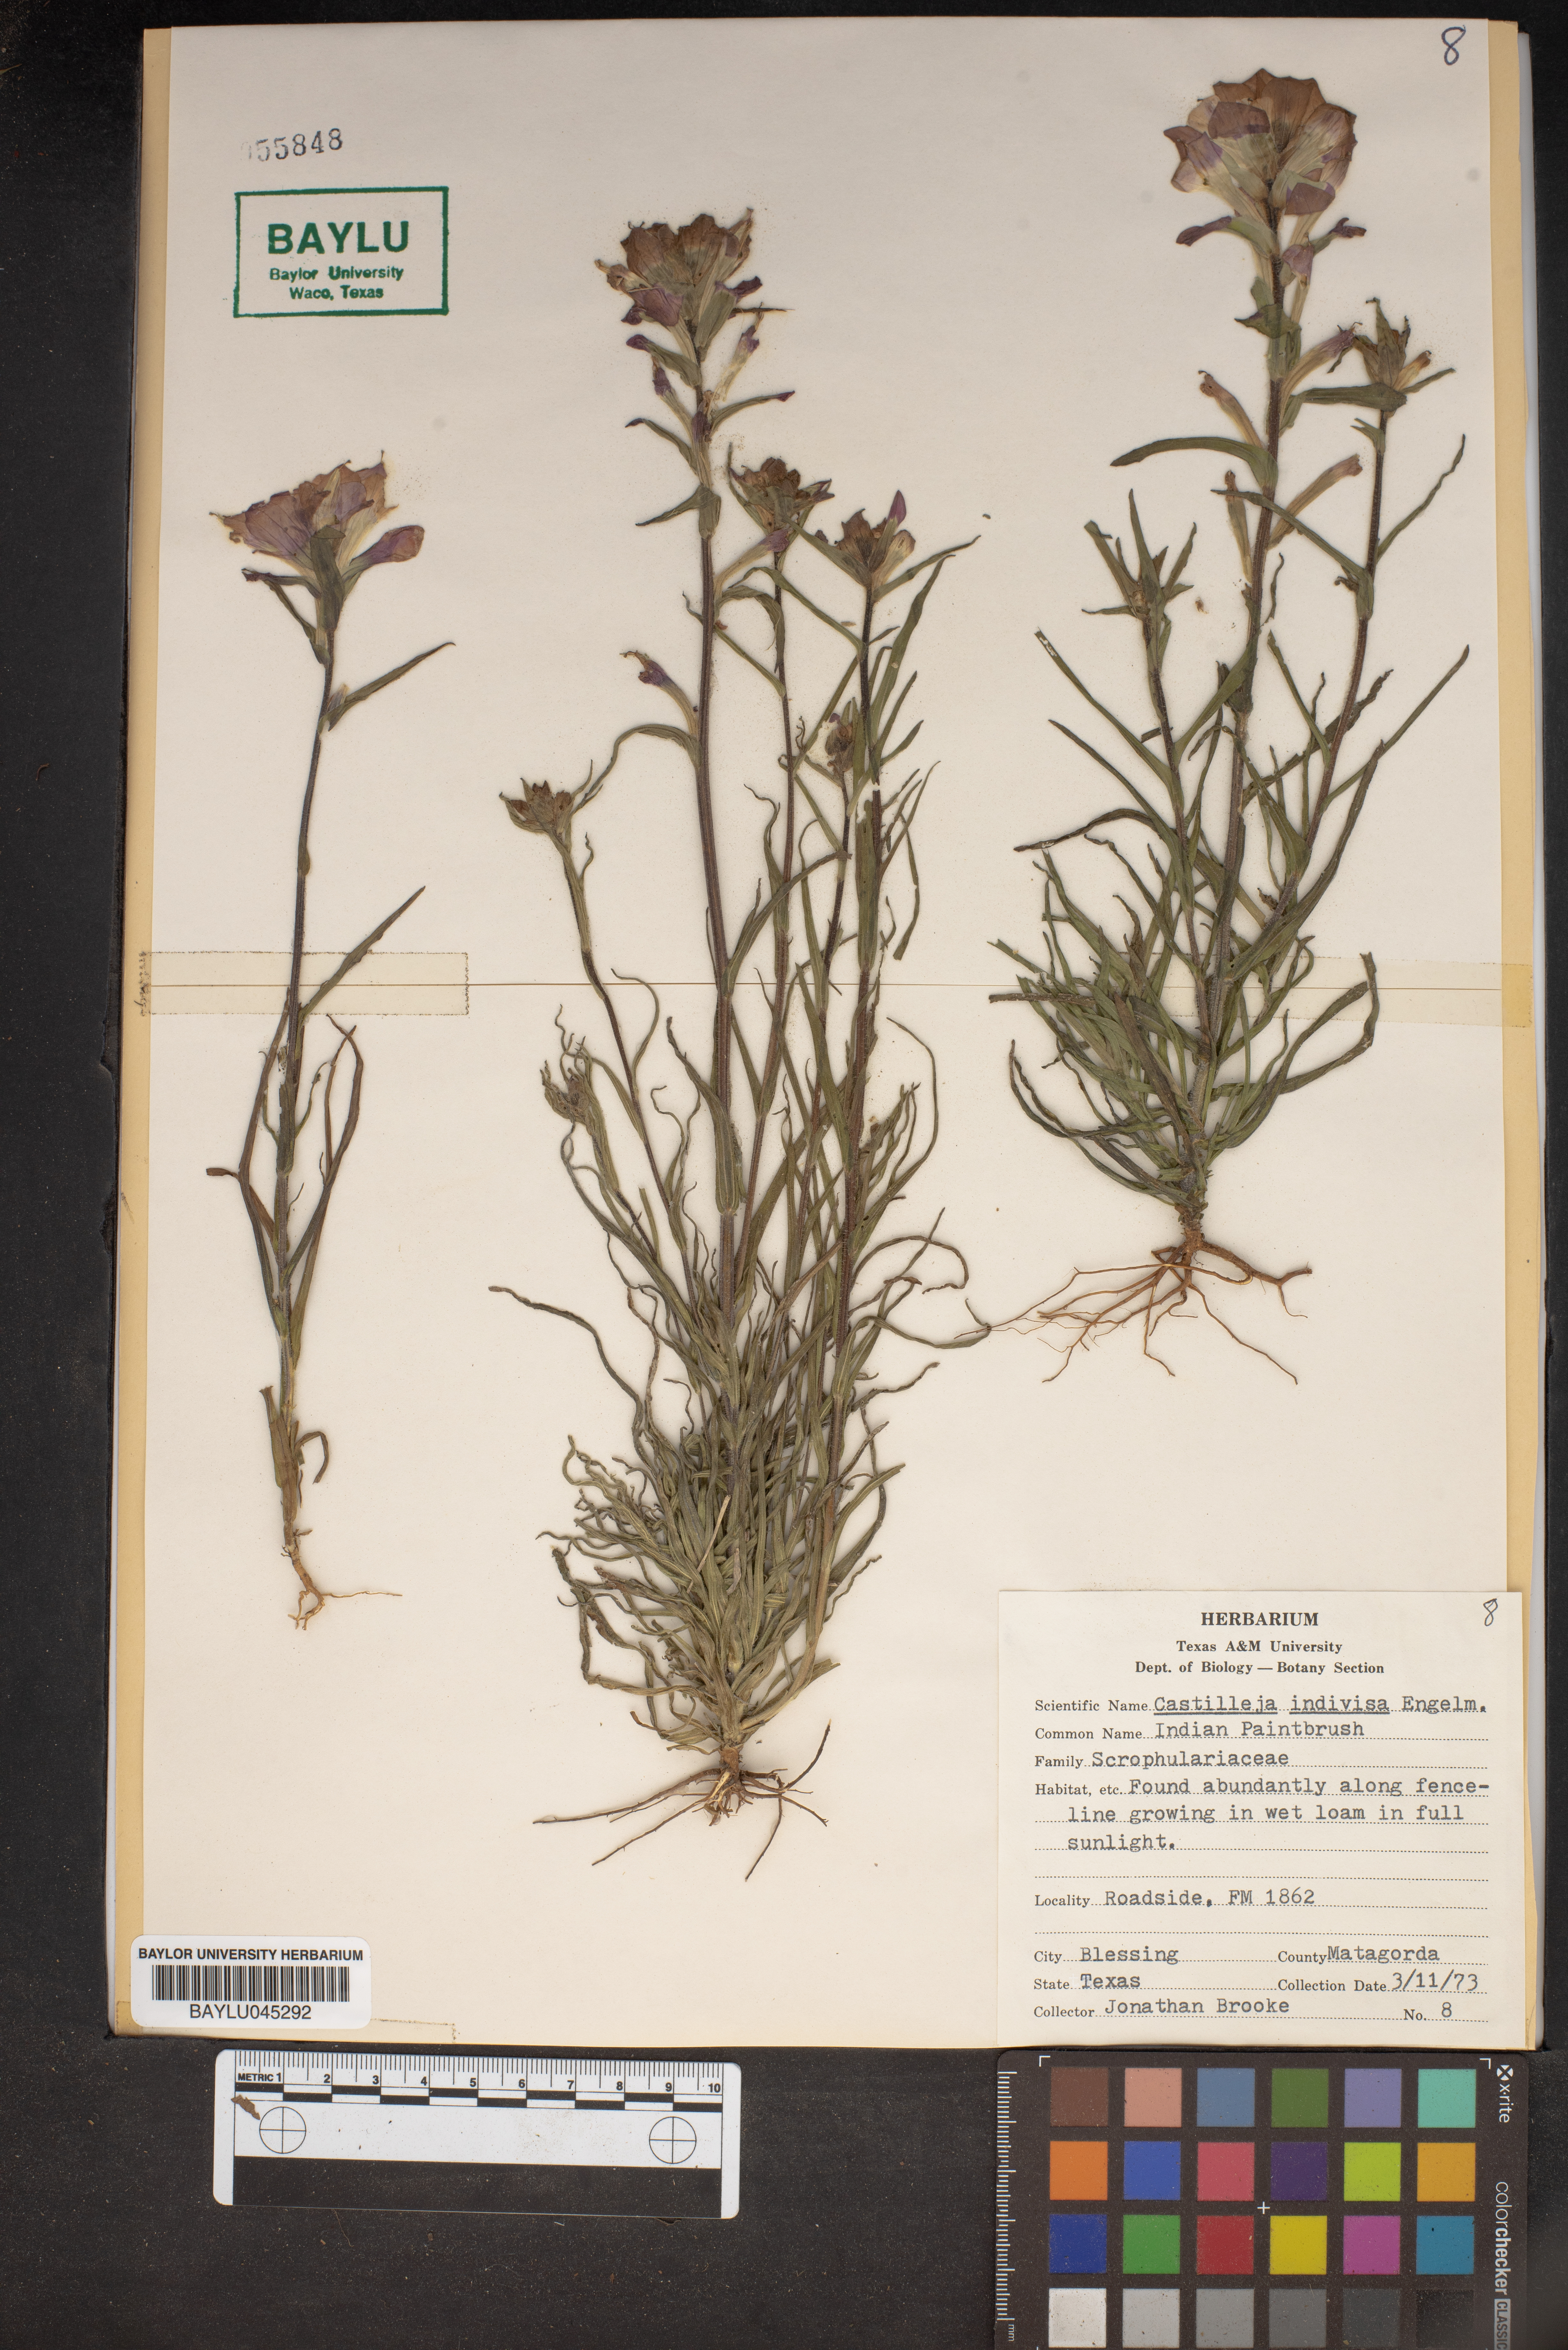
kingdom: Plantae
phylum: Tracheophyta
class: Magnoliopsida
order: Lamiales
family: Orobanchaceae
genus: Castilleja
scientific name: Castilleja indivisa
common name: Texas paintbrush
